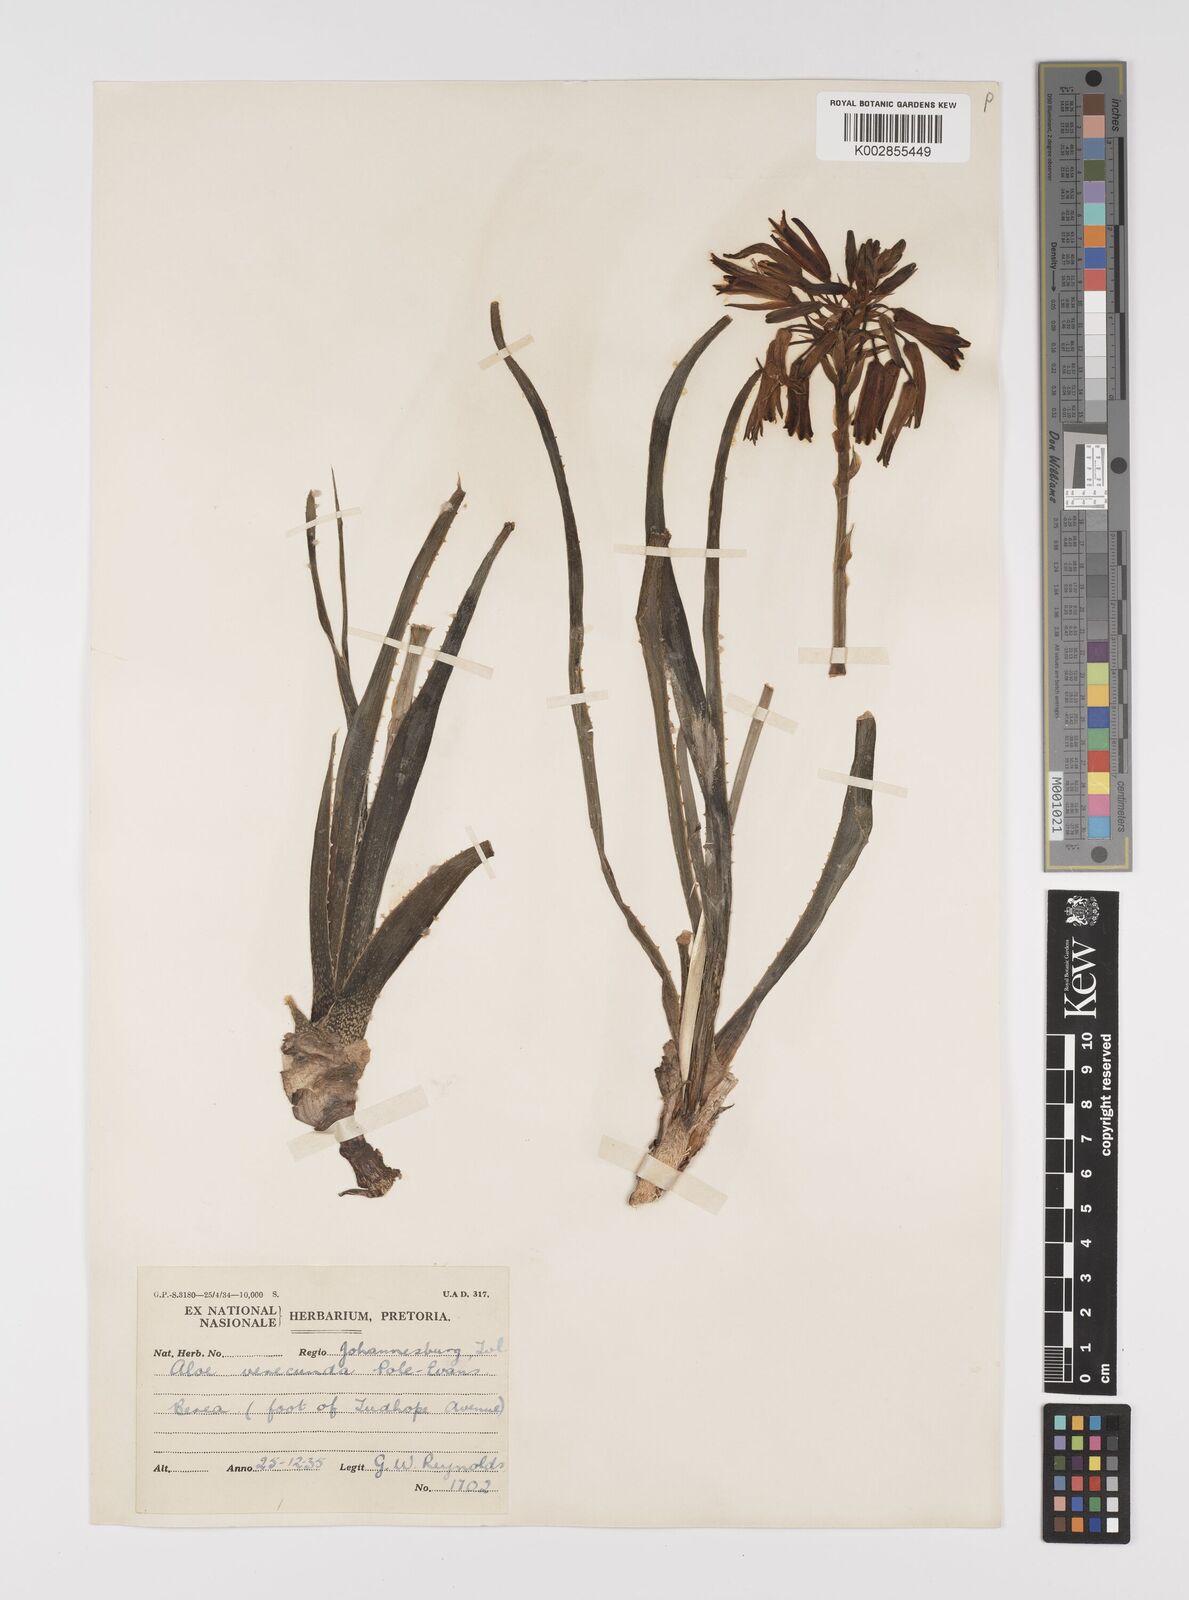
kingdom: Plantae
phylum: Tracheophyta
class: Liliopsida
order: Asparagales
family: Asphodelaceae
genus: Aloe
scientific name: Aloe verecunda
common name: Grass aloe
